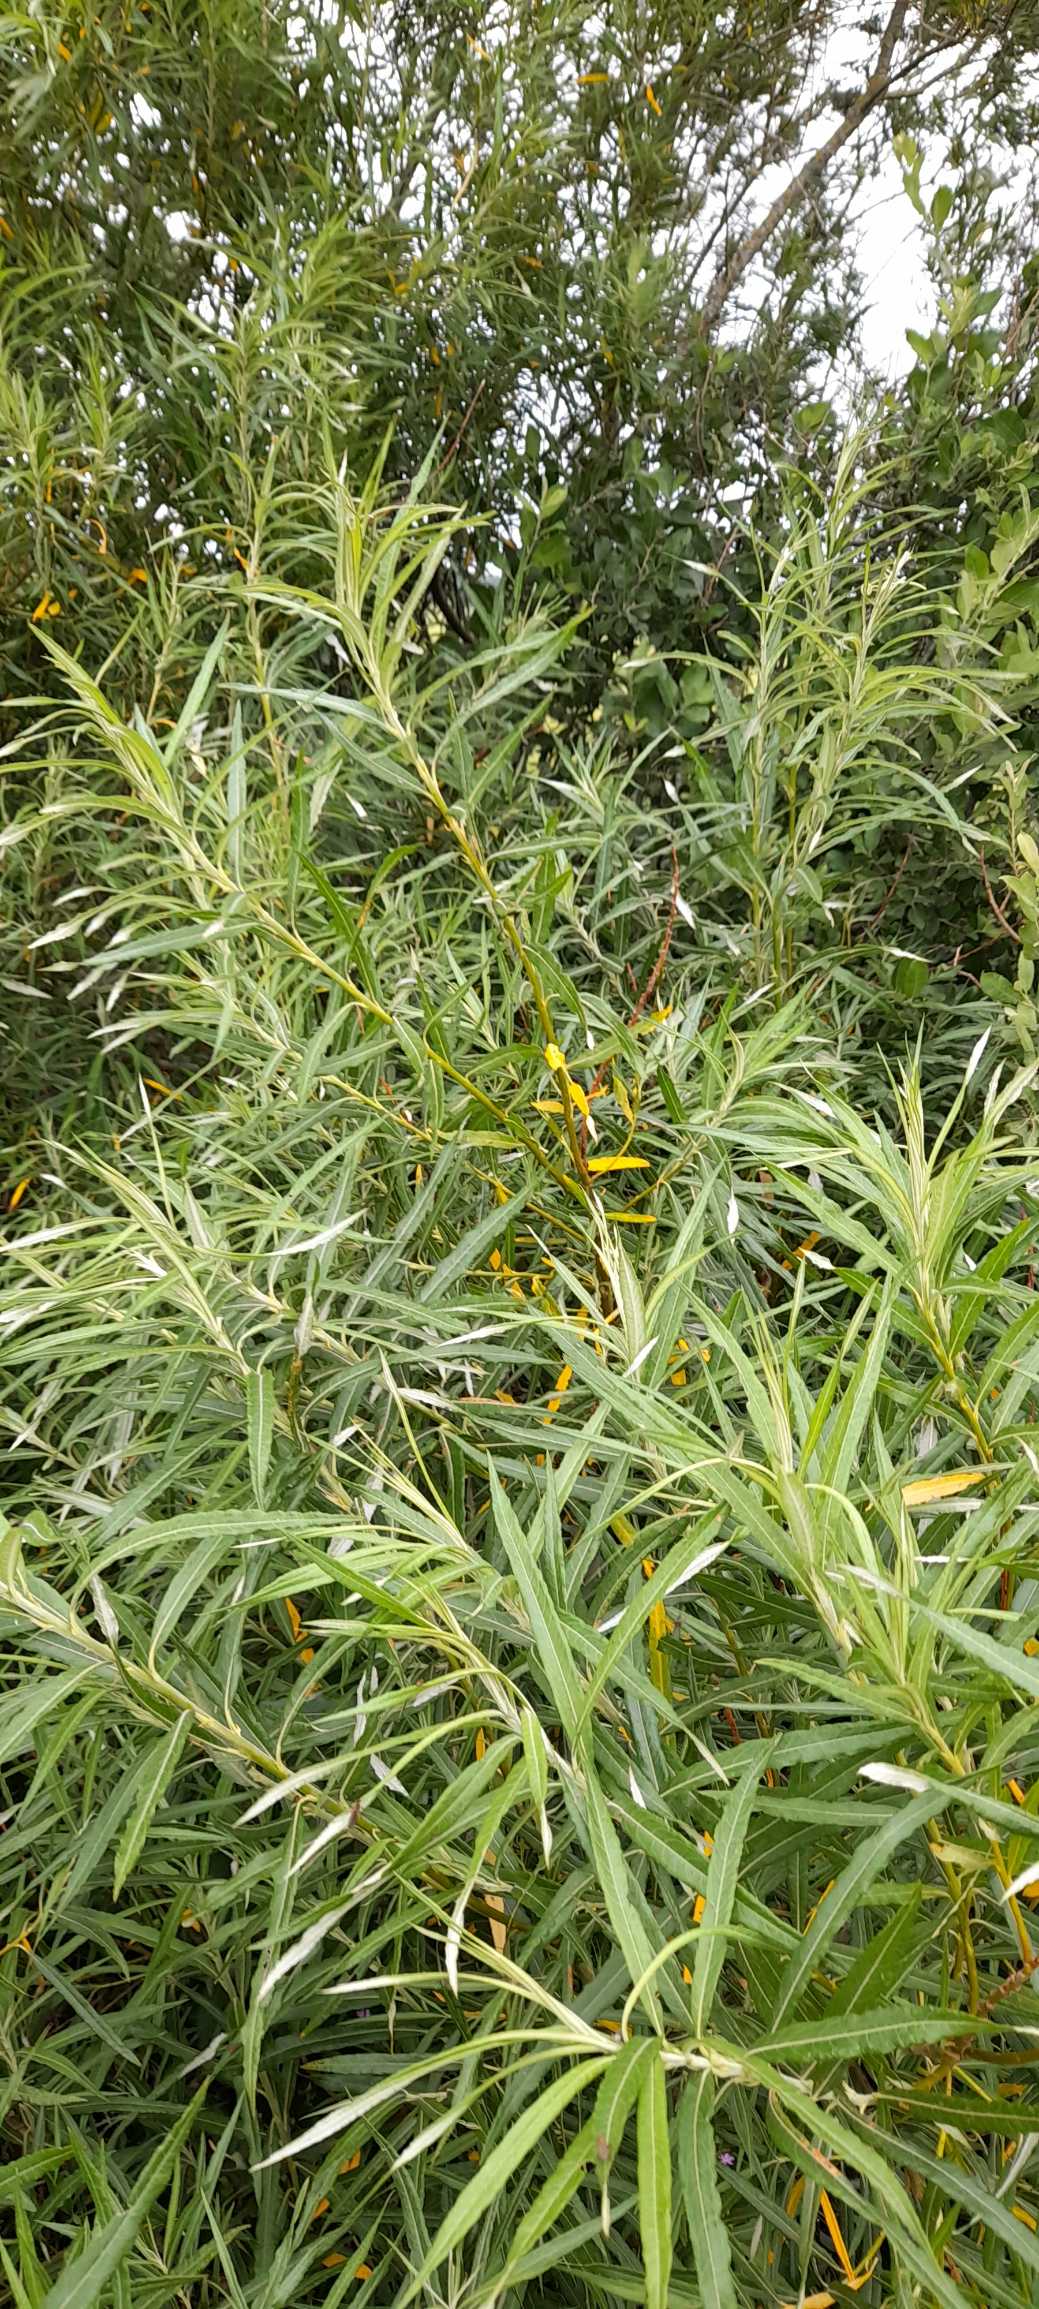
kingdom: Plantae
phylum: Tracheophyta
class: Magnoliopsida
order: Malpighiales
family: Salicaceae
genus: Salix
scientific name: Salix viminalis
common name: Bånd-pil
